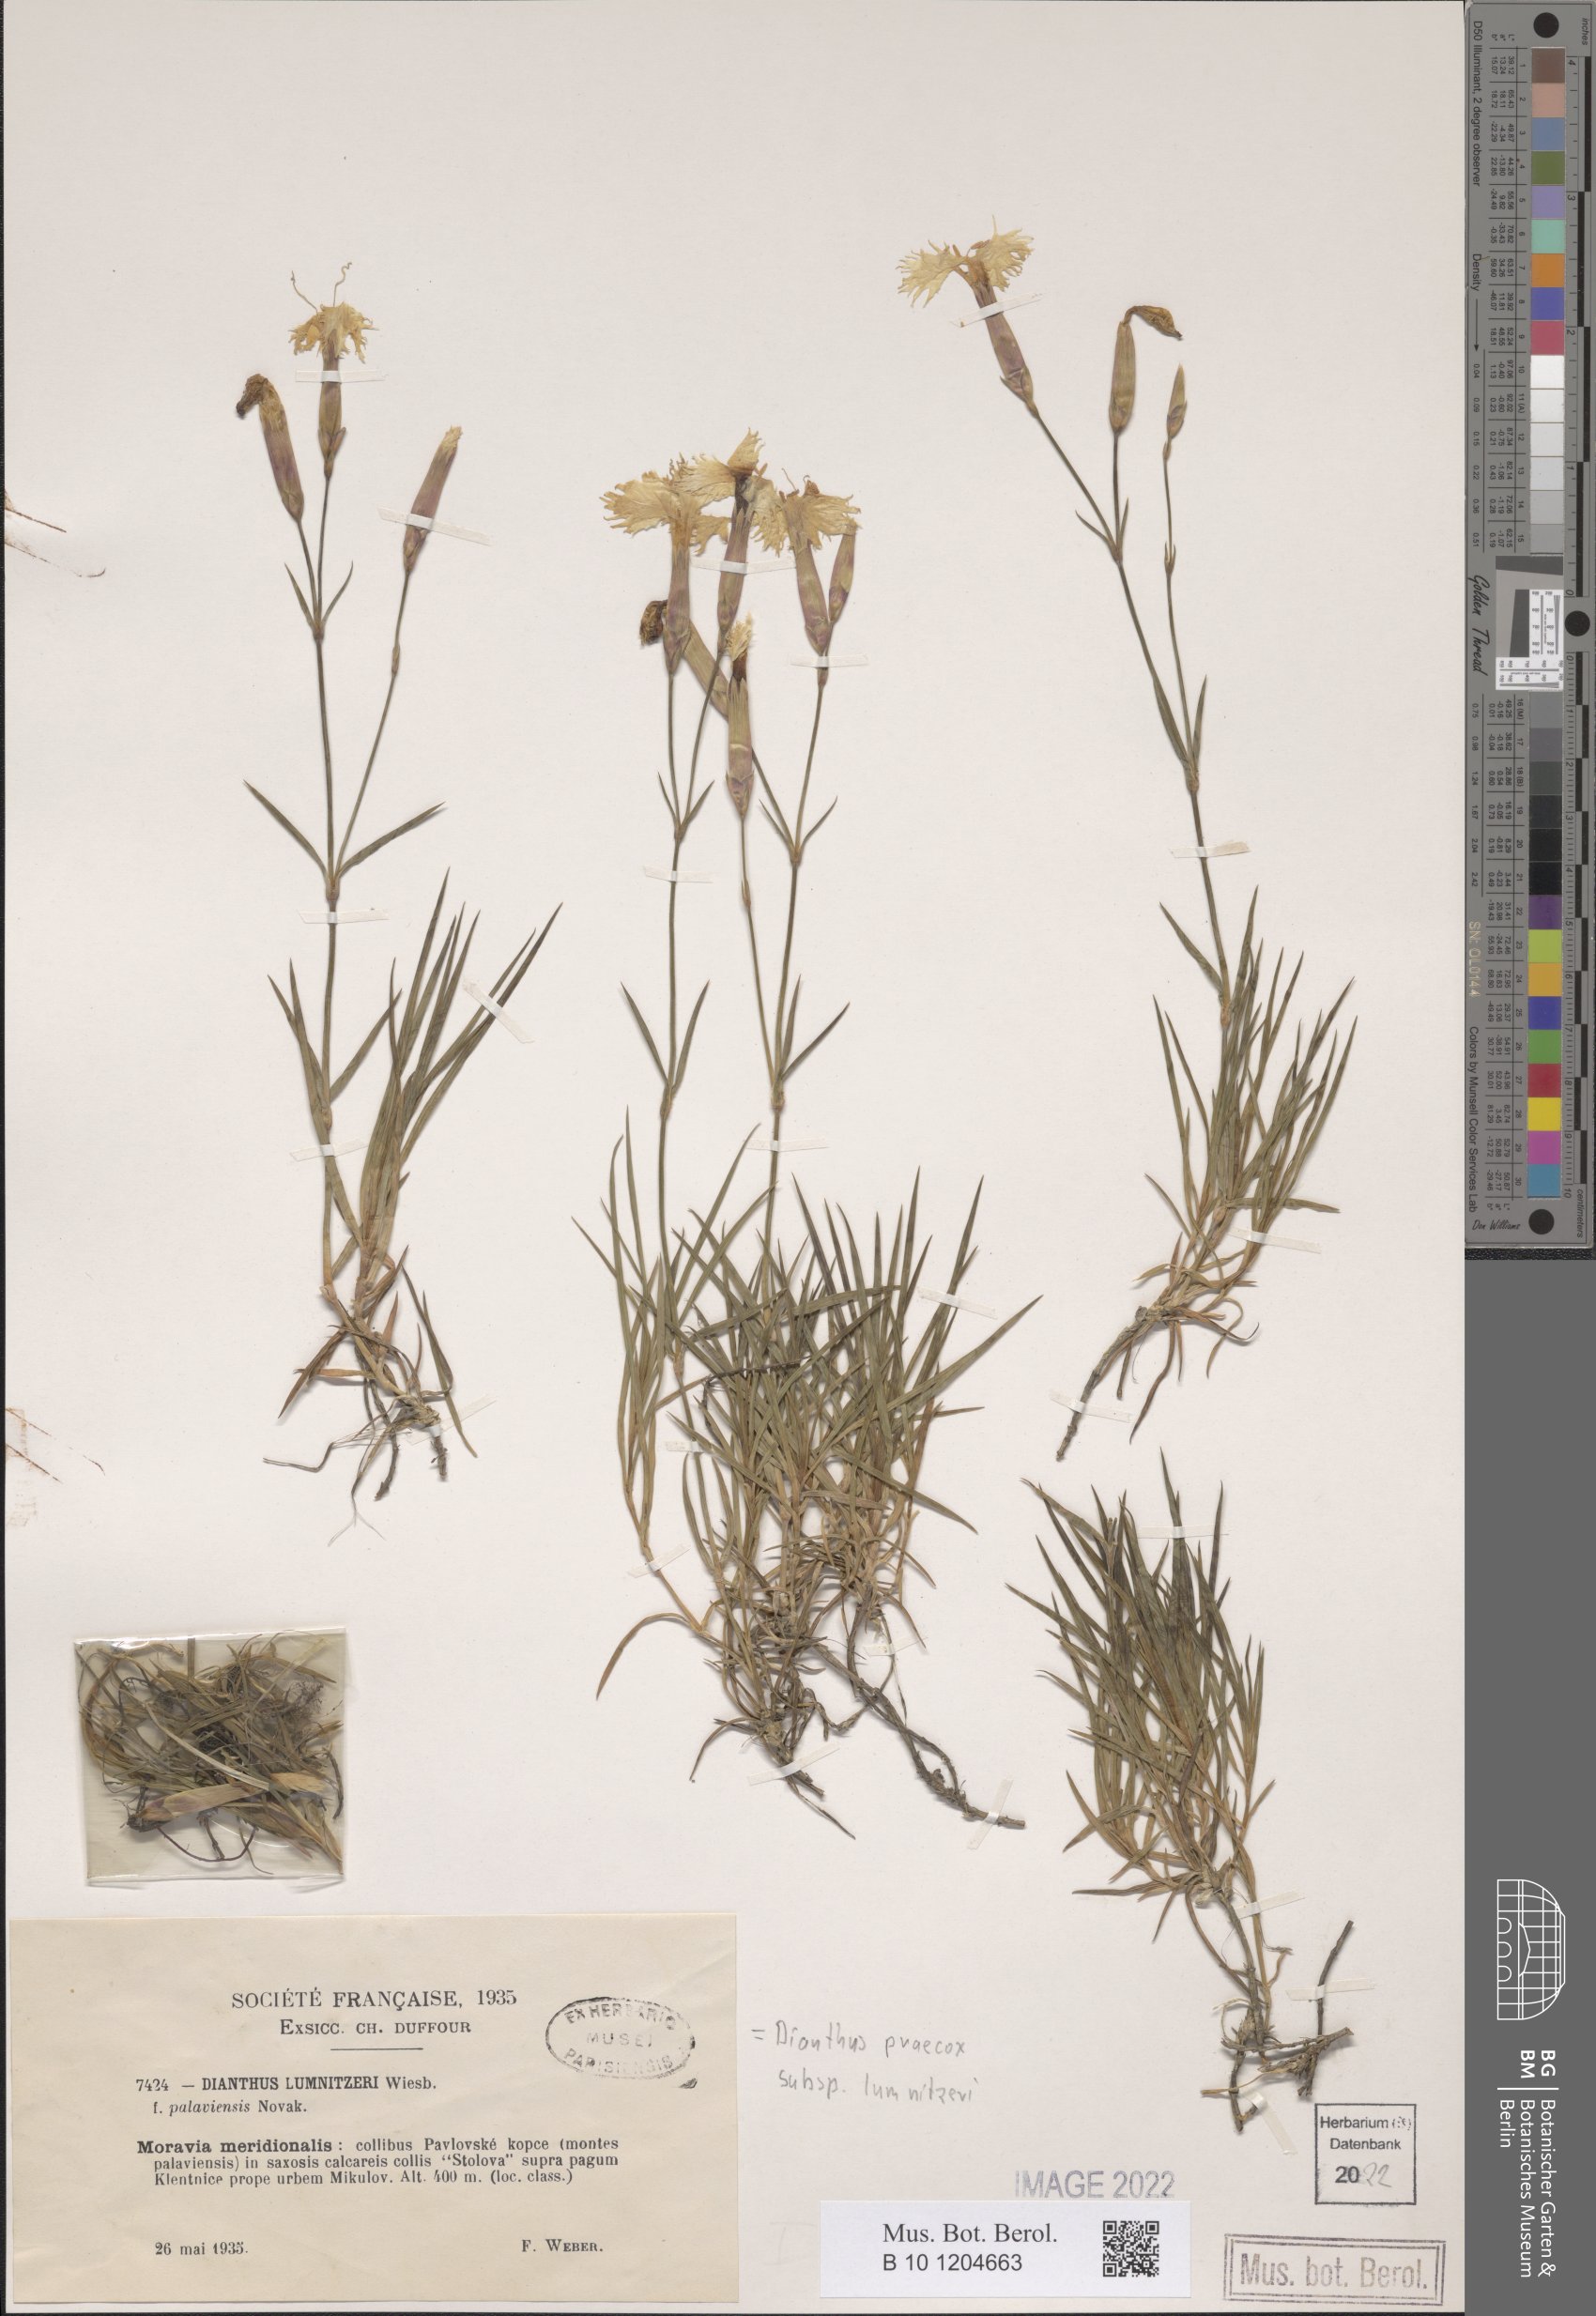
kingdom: Plantae
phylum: Tracheophyta
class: Magnoliopsida
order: Caryophyllales
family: Caryophyllaceae
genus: Dianthus
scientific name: Dianthus praecox
